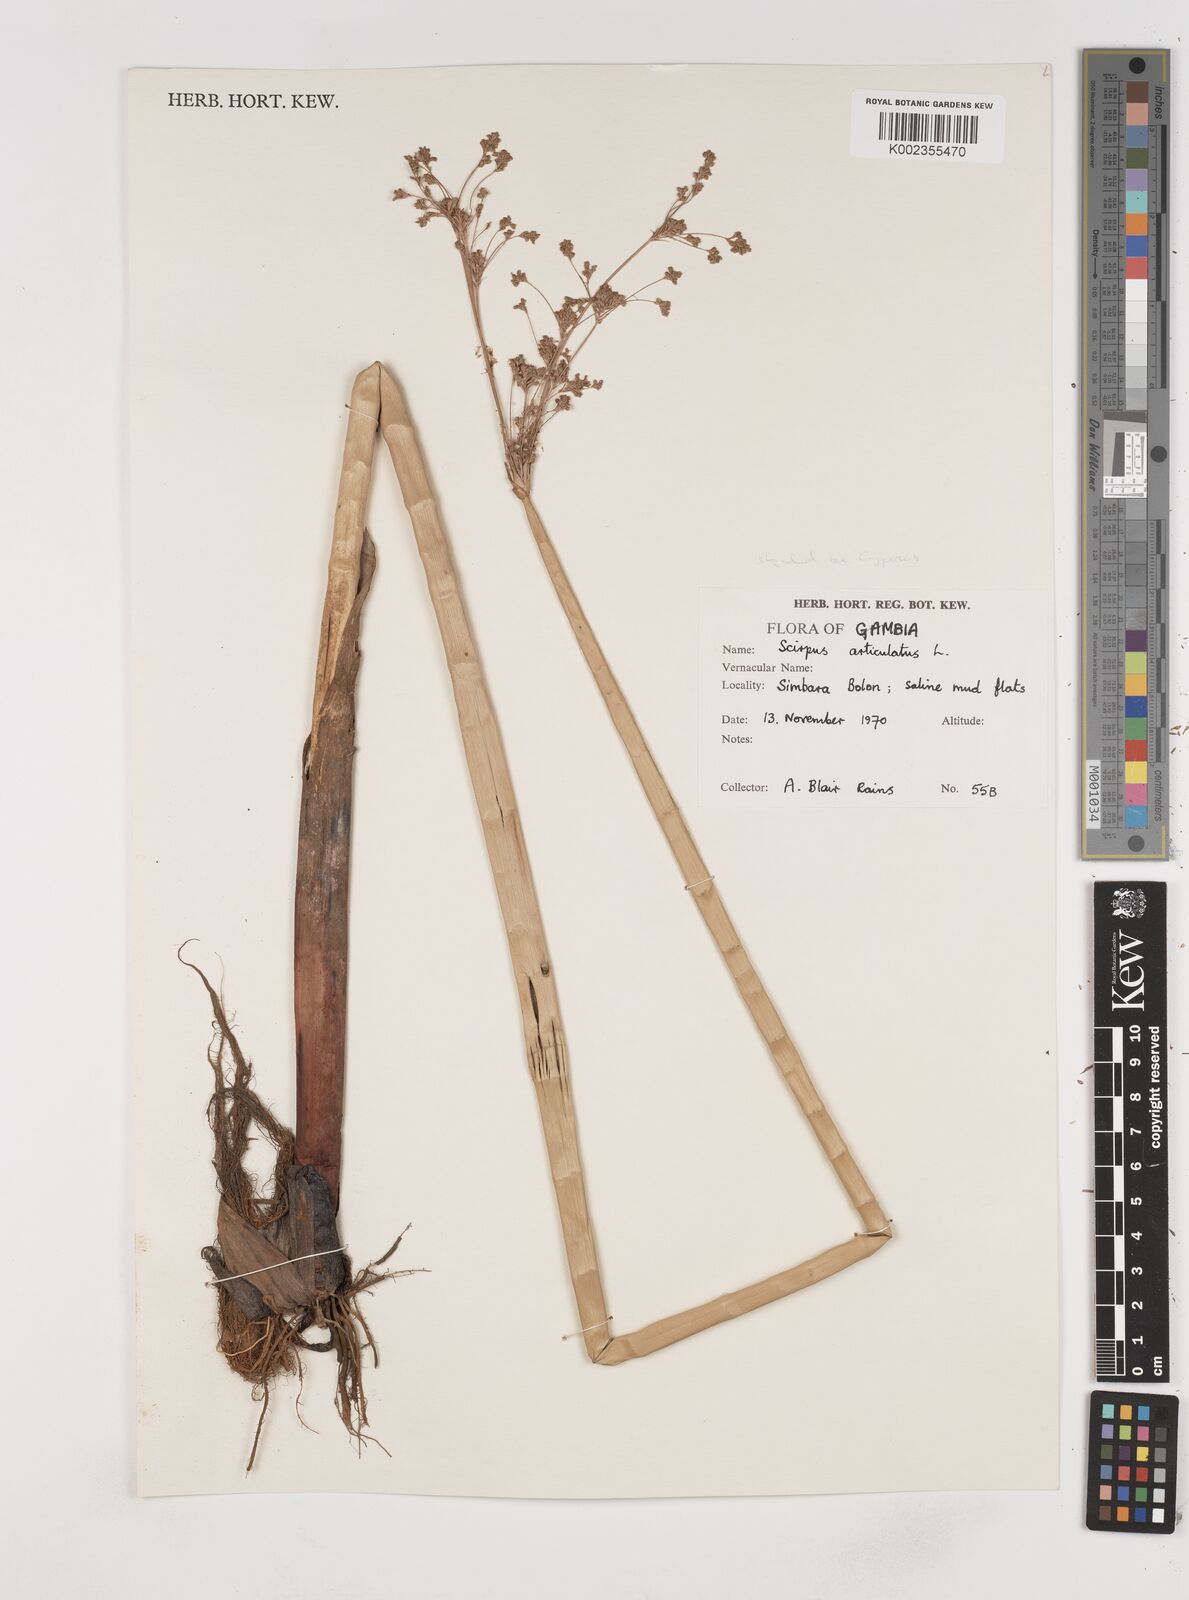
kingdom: Plantae
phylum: Tracheophyta
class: Liliopsida
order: Poales
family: Cyperaceae
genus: Cyperus
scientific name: Cyperus articulatus
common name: Jointed flatsedge
